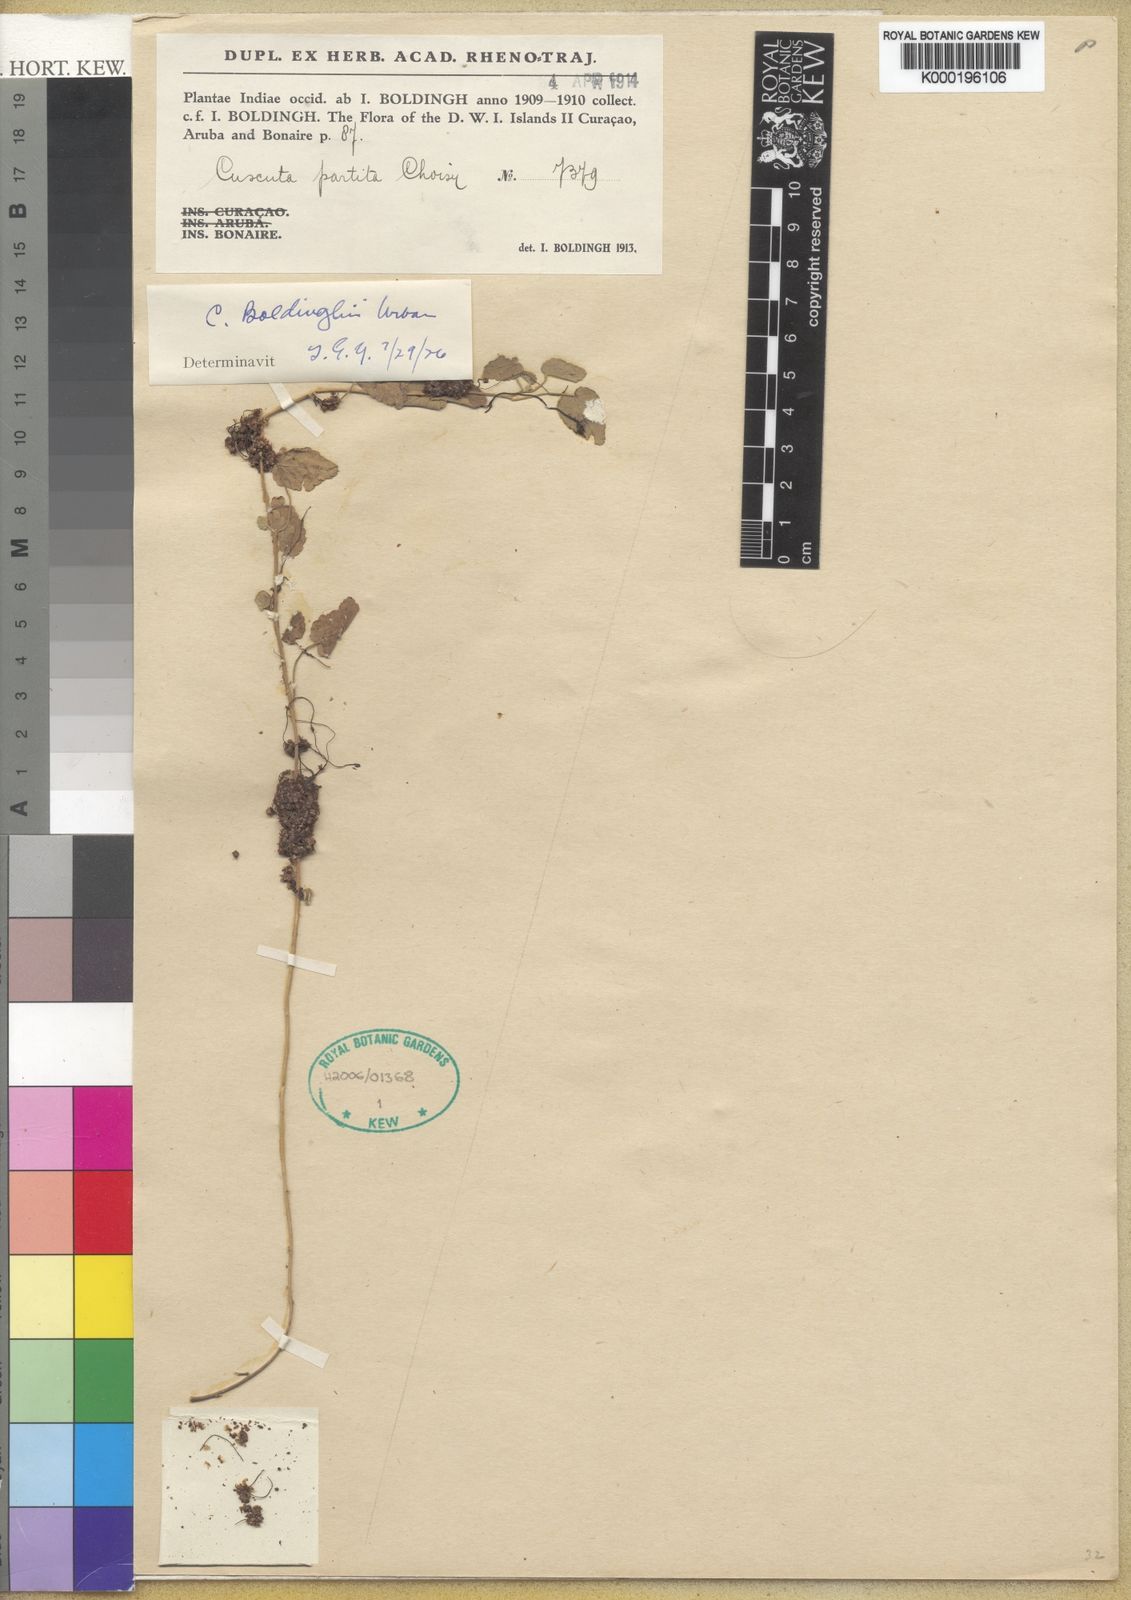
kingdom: Plantae
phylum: Tracheophyta
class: Magnoliopsida
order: Solanales
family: Convolvulaceae
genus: Cuscuta
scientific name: Cuscuta boldinghii
